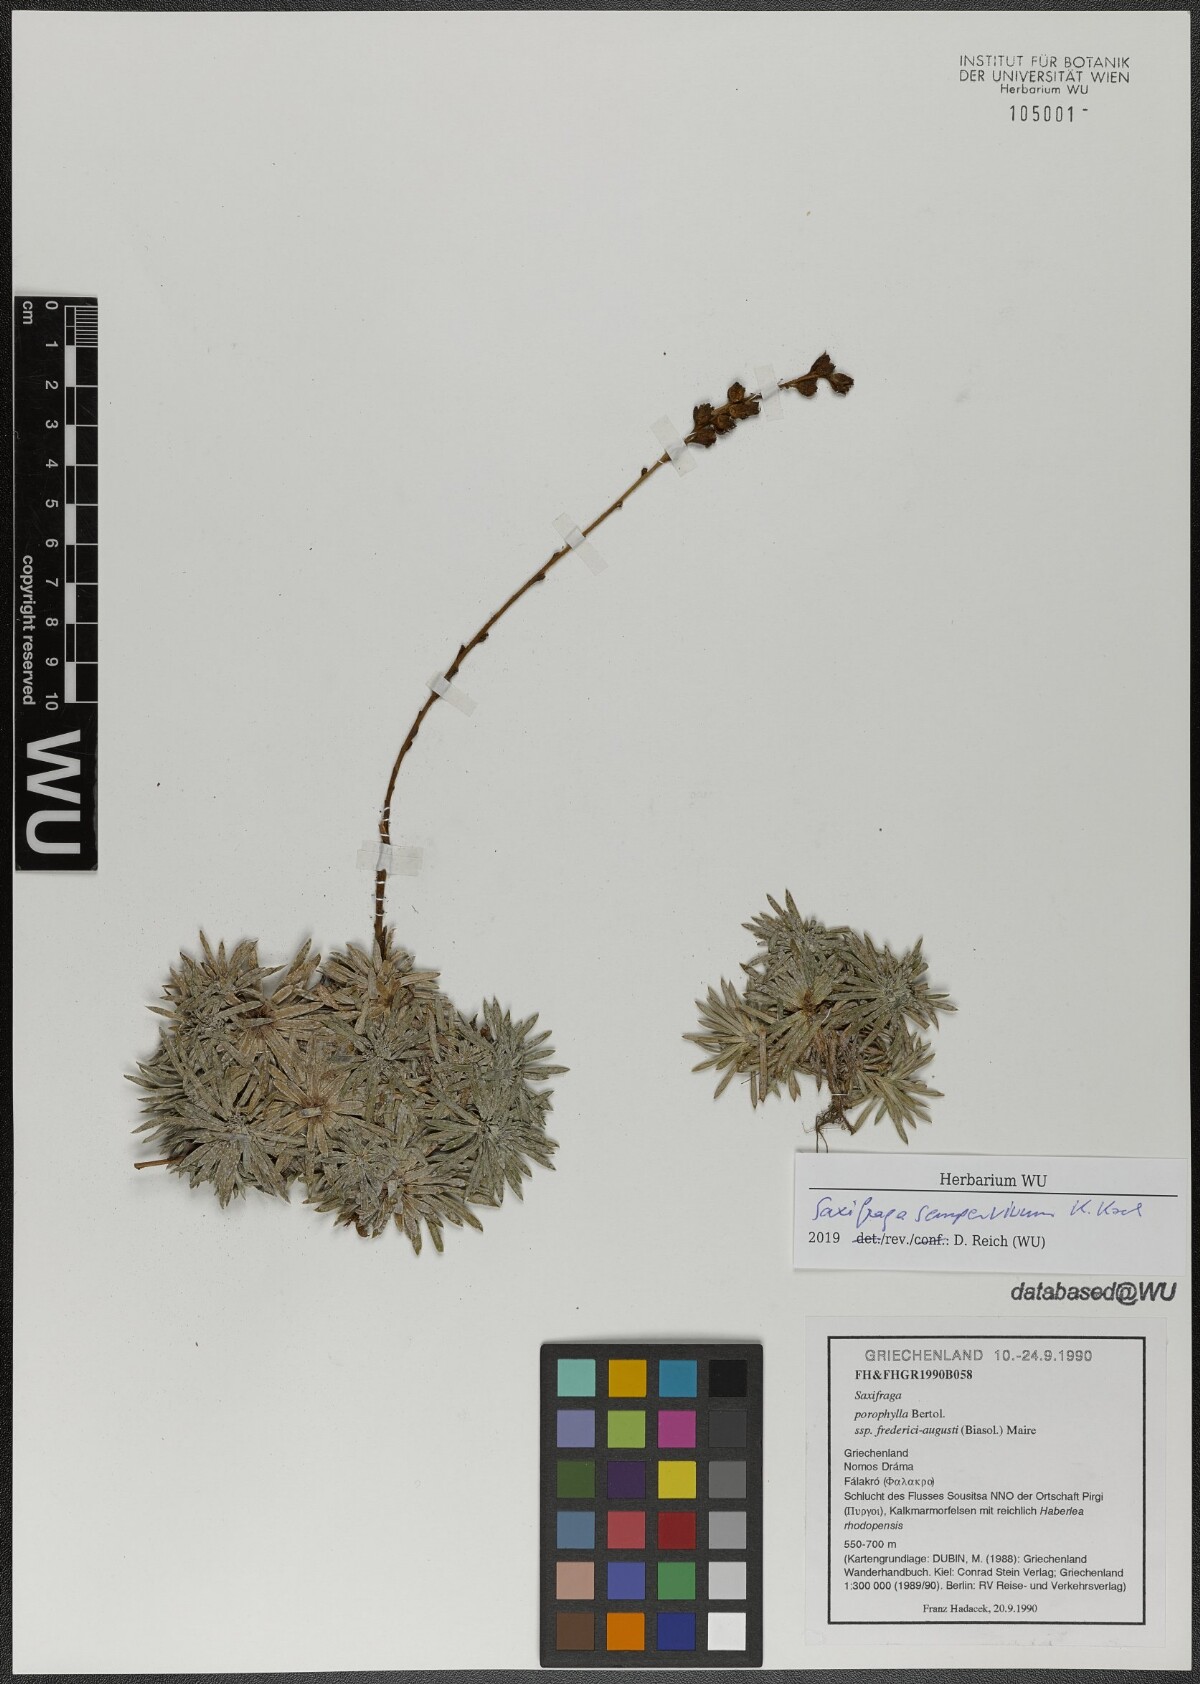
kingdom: Plantae
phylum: Tracheophyta
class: Magnoliopsida
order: Saxifragales
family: Saxifragaceae
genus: Saxifraga
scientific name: Saxifraga sempervivum
